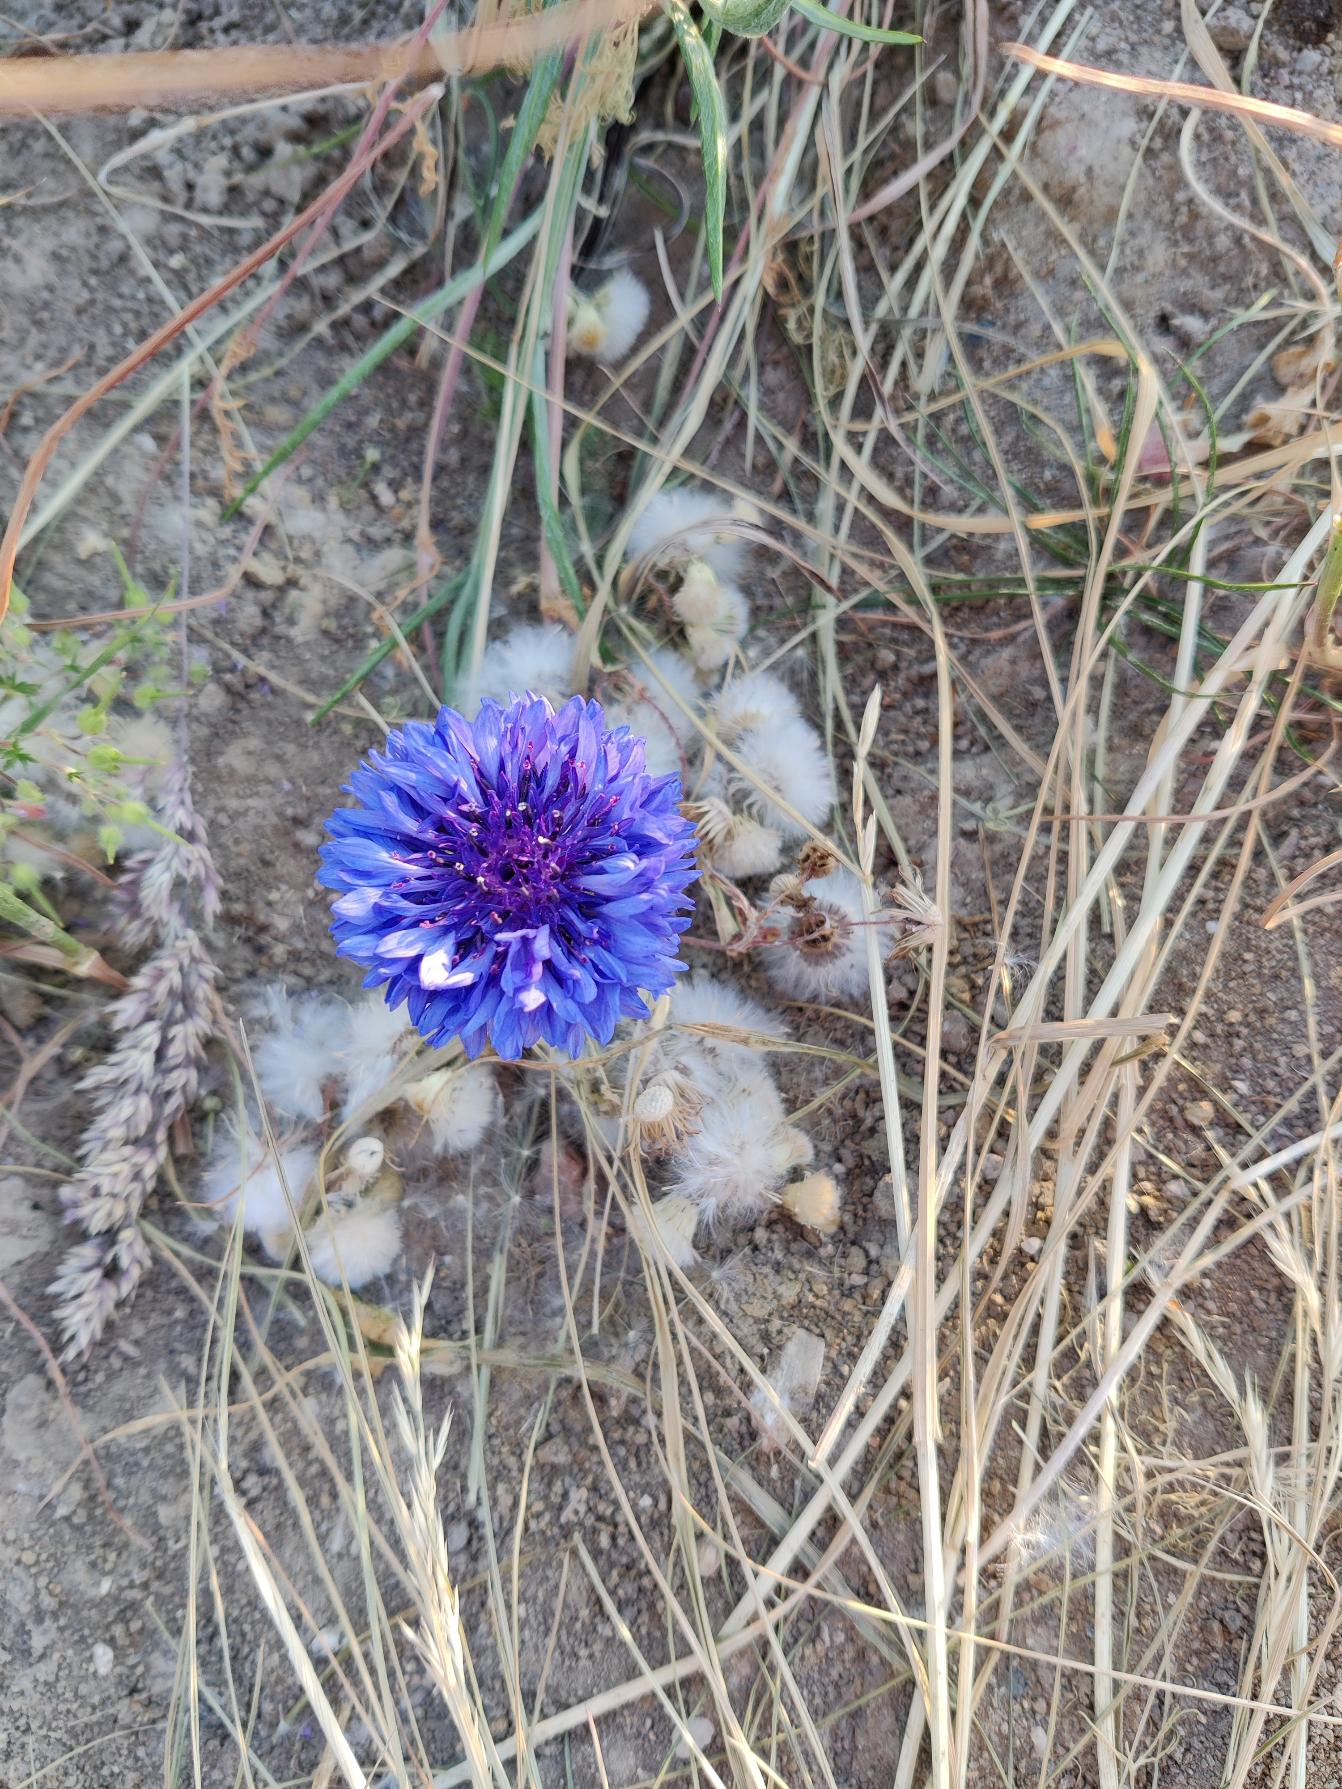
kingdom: Plantae
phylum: Tracheophyta
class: Magnoliopsida
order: Asterales
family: Asteraceae
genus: Centaurea
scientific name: Centaurea cyanus
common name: Kornblomst
